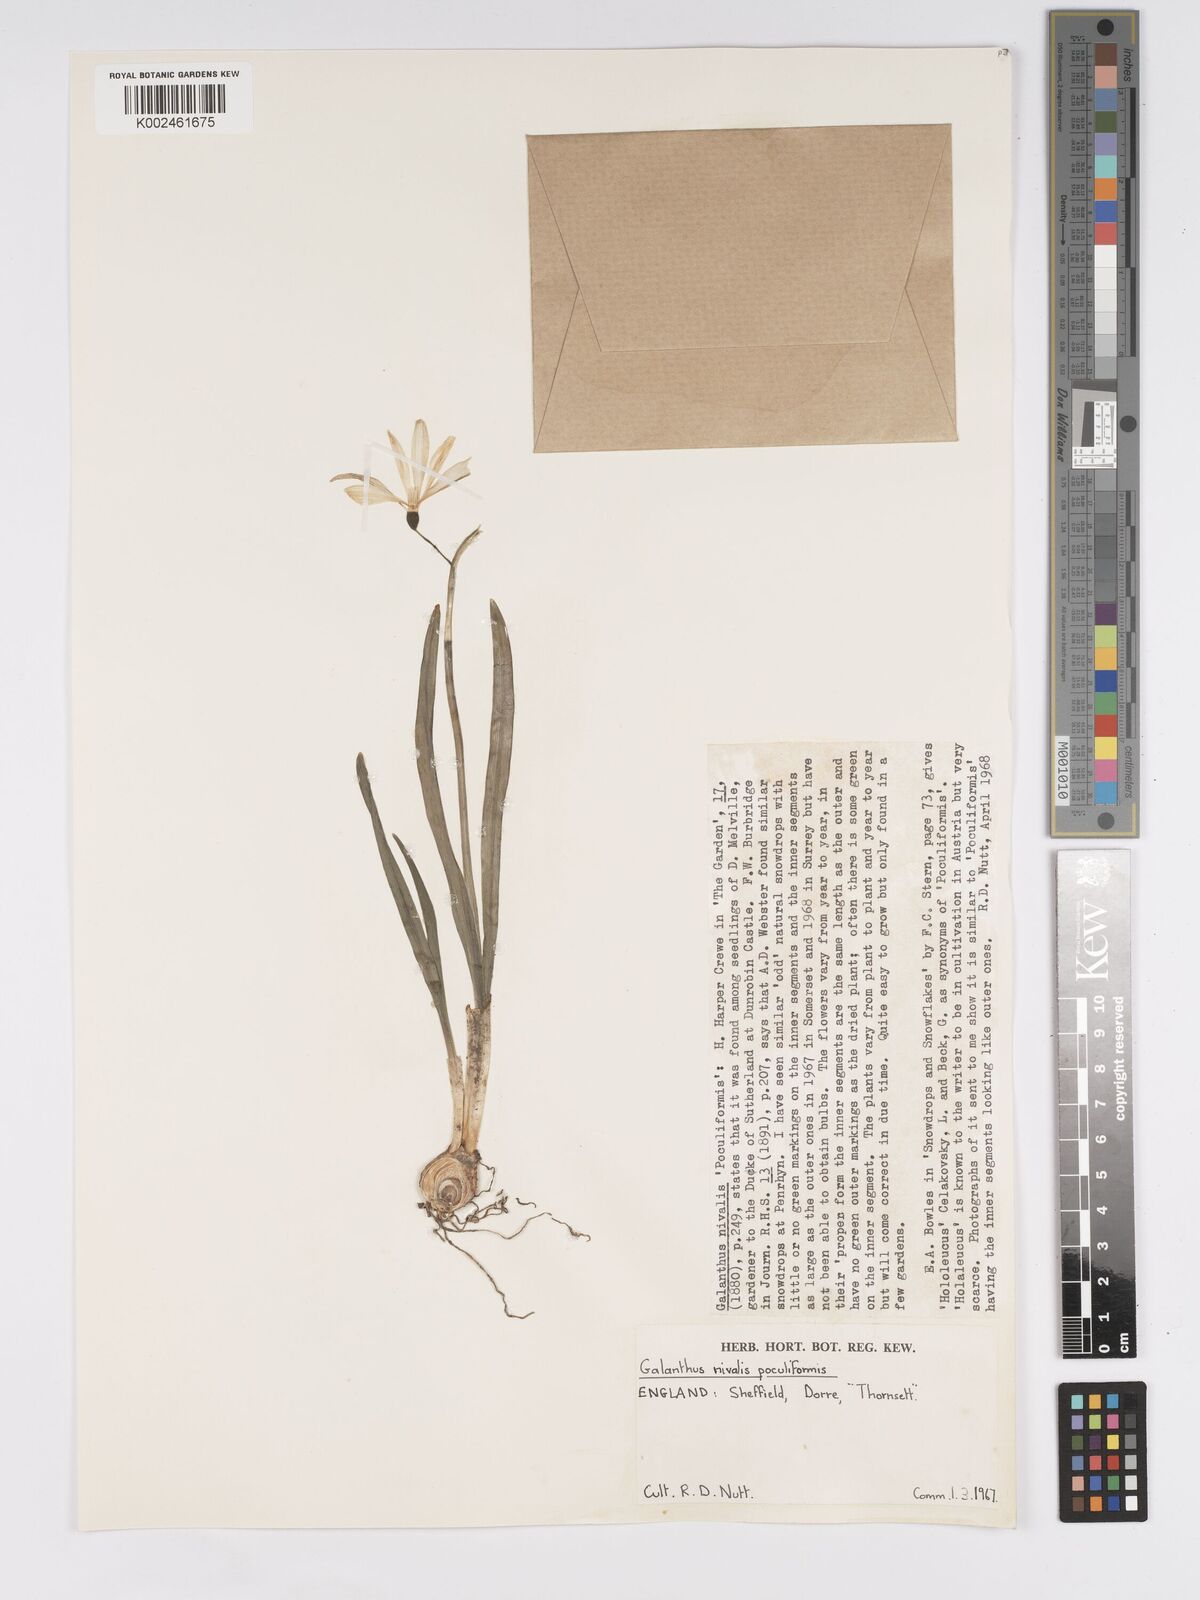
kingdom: Plantae
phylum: Tracheophyta
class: Liliopsida
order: Asparagales
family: Amaryllidaceae
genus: Galanthus
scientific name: Galanthus
